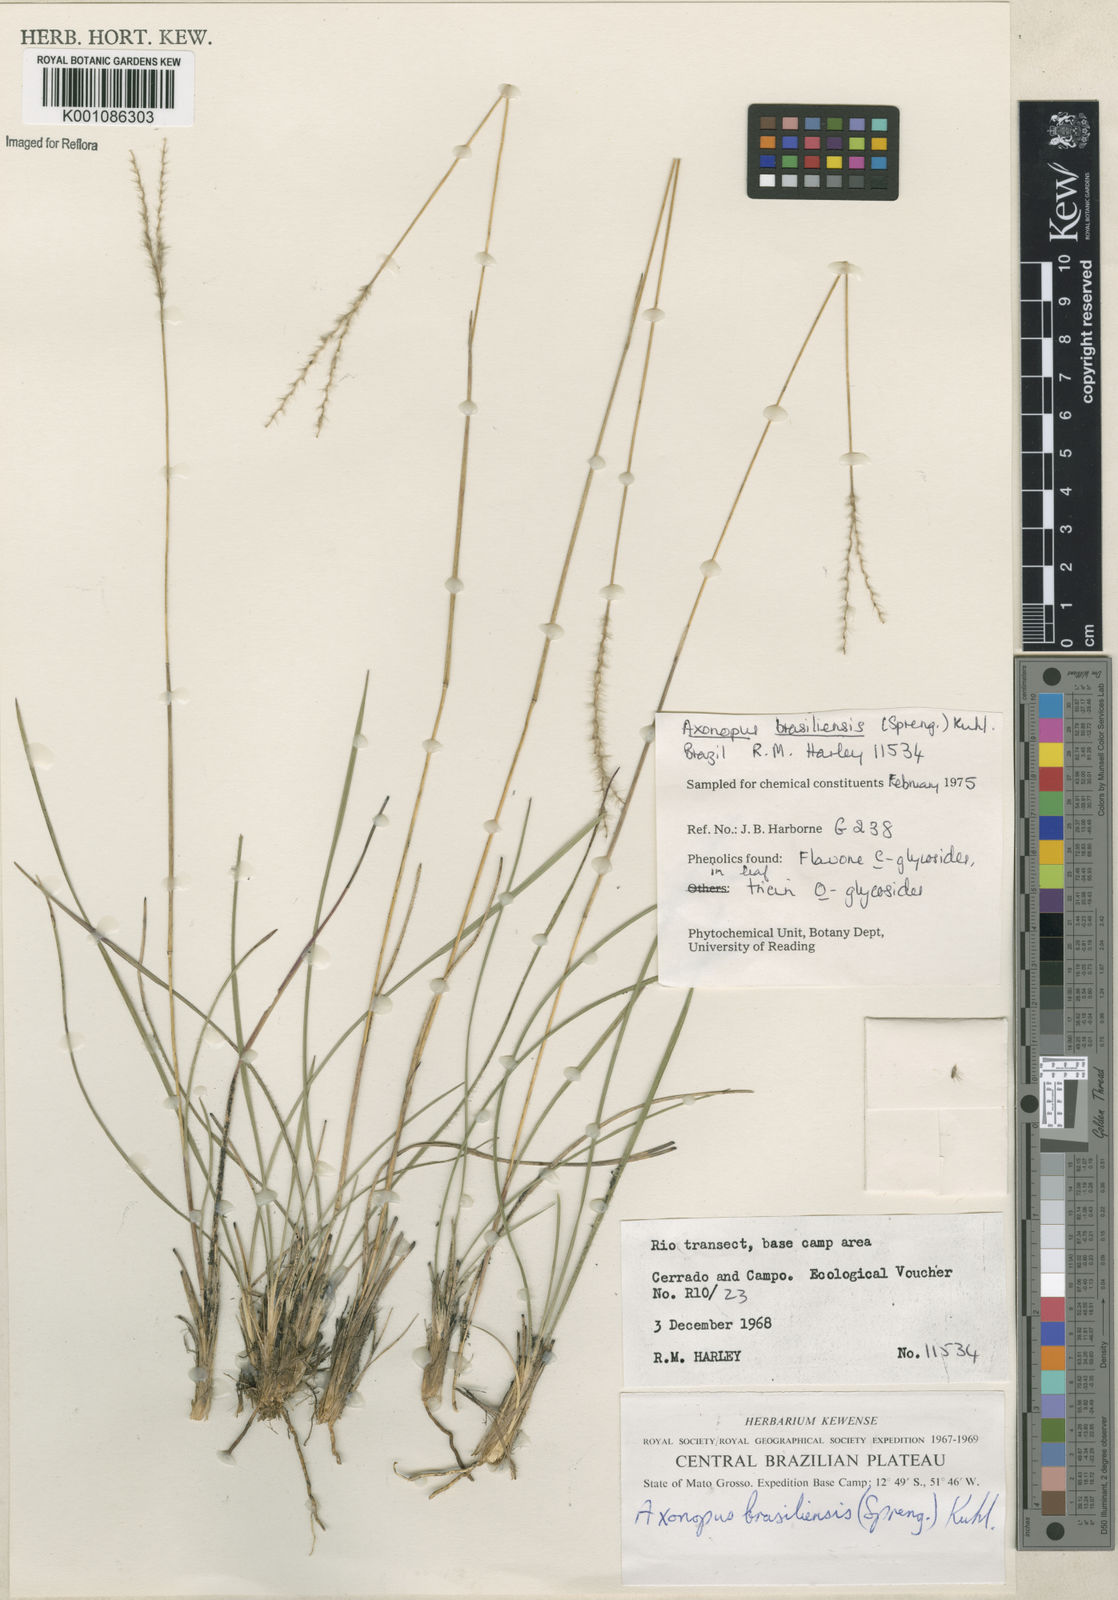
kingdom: Plantae
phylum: Tracheophyta
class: Liliopsida
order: Poales
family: Poaceae
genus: Axonopus
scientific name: Axonopus brasiliensis
